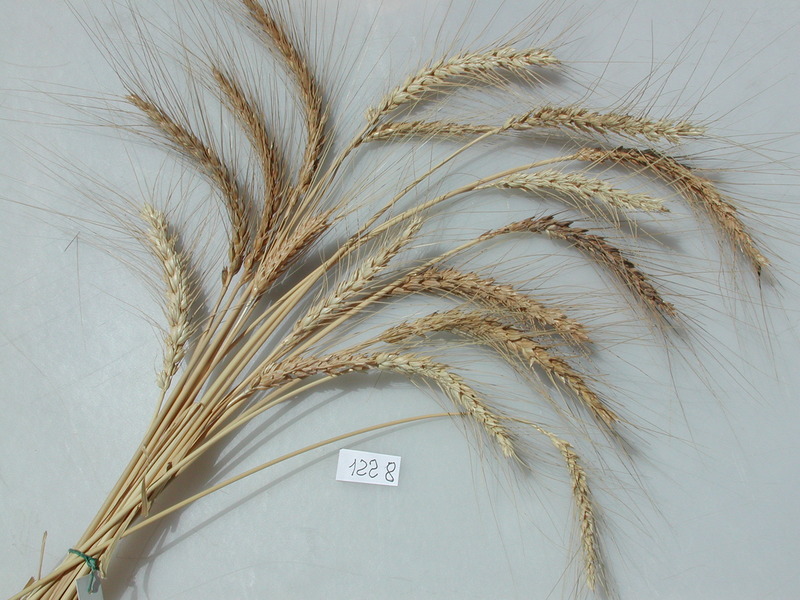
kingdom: Plantae
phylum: Tracheophyta
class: Liliopsida
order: Poales
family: Poaceae
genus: Triticum
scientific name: Triticum turgidum
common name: Wheat
